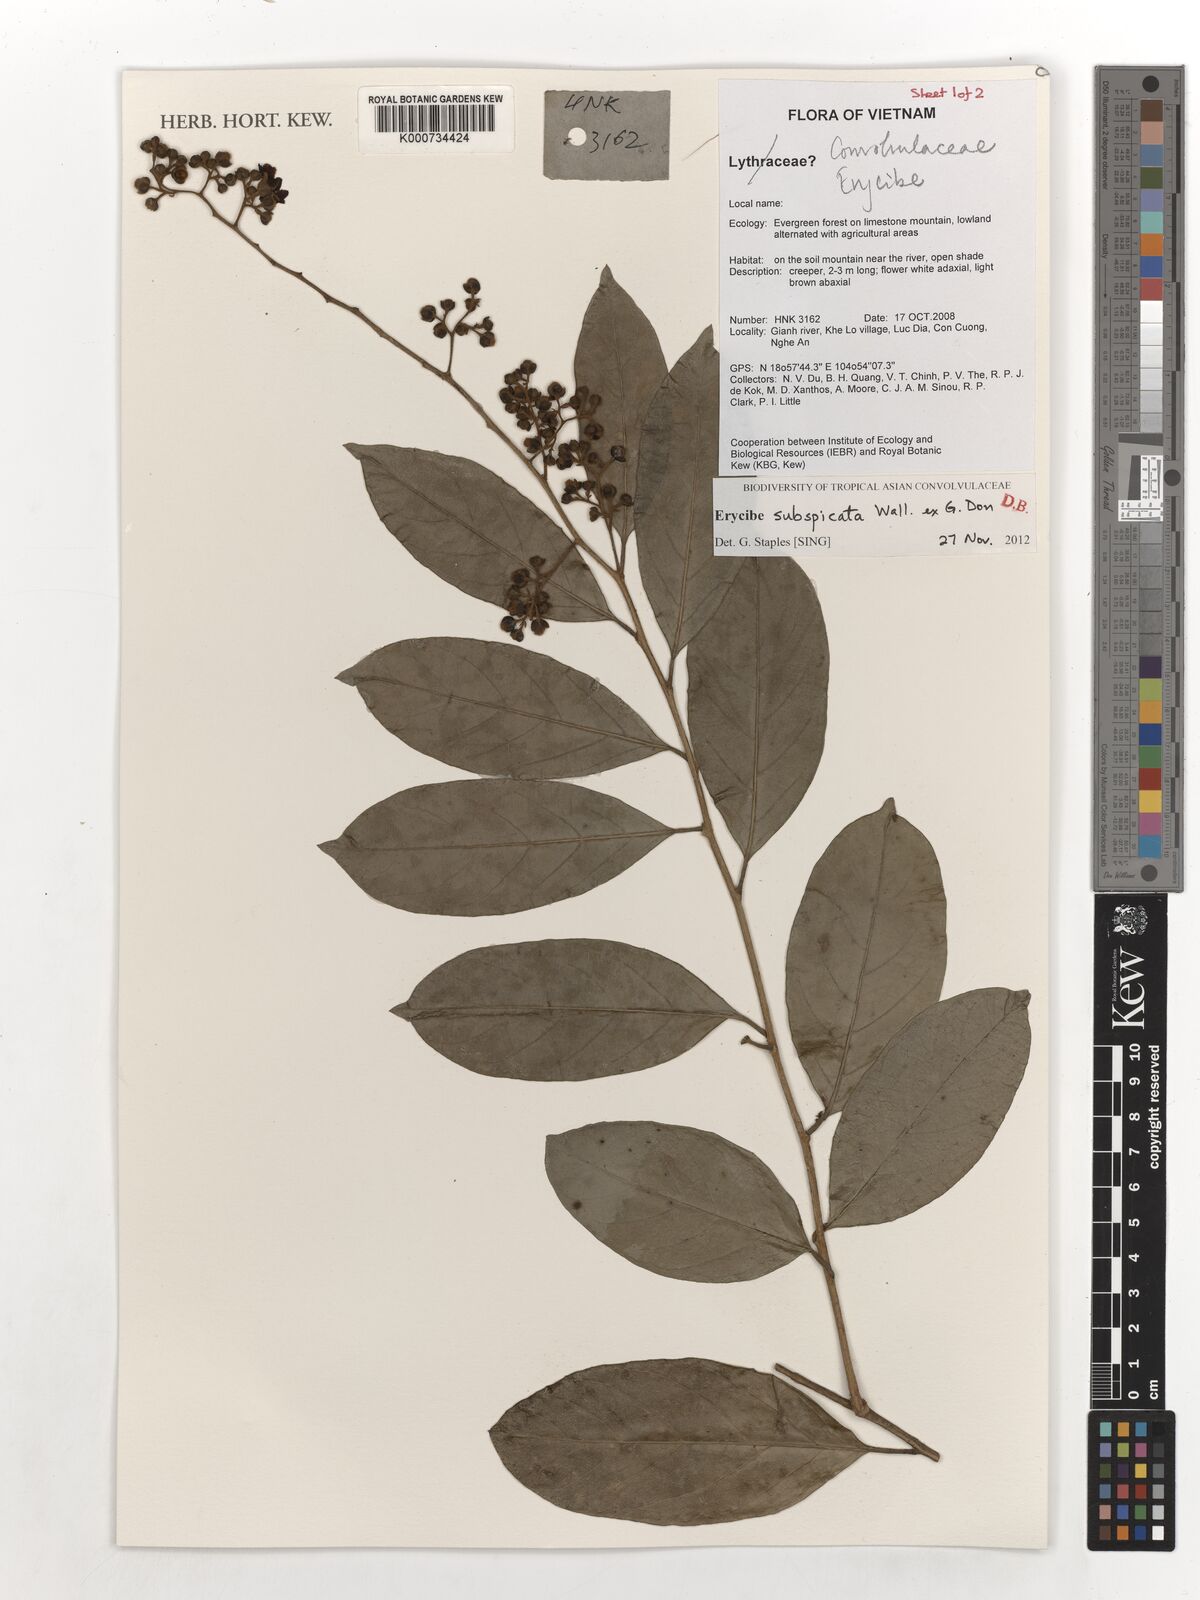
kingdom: Plantae
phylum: Tracheophyta
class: Magnoliopsida
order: Solanales
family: Convolvulaceae
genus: Erycibe
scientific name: Erycibe subspicata
